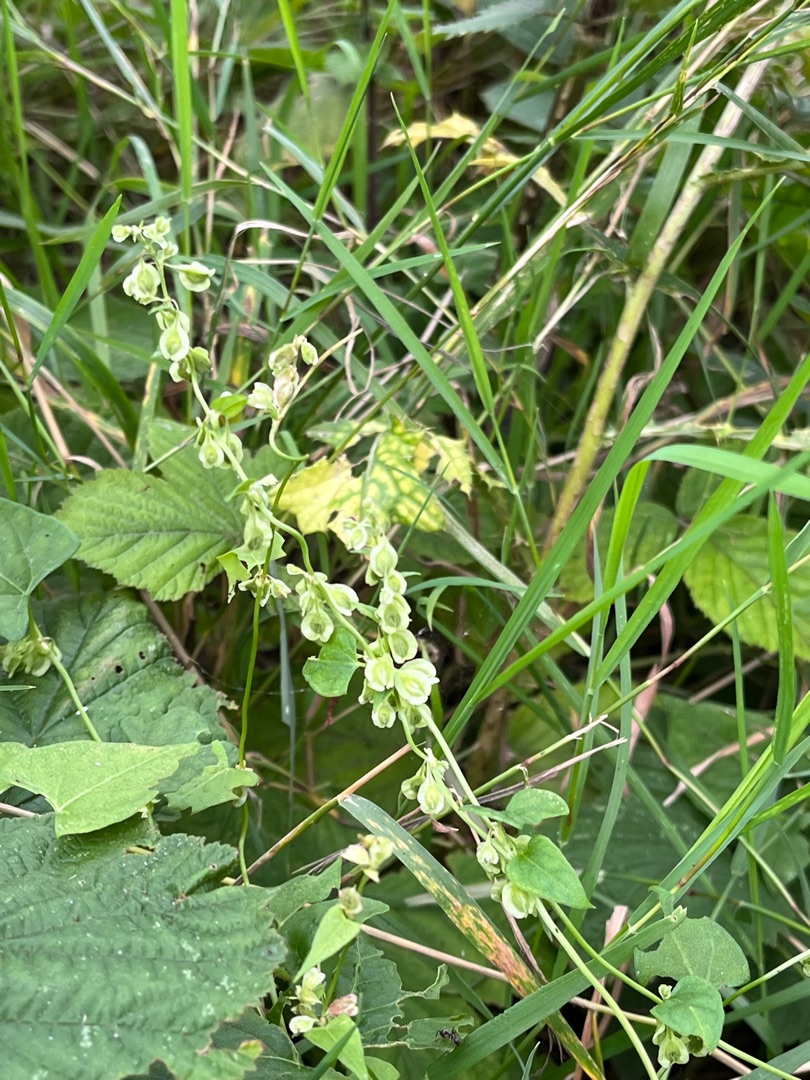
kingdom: Plantae
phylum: Tracheophyta
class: Magnoliopsida
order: Caryophyllales
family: Polygonaceae
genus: Fallopia
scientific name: Fallopia dumetorum
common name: Vinge-pileurt
